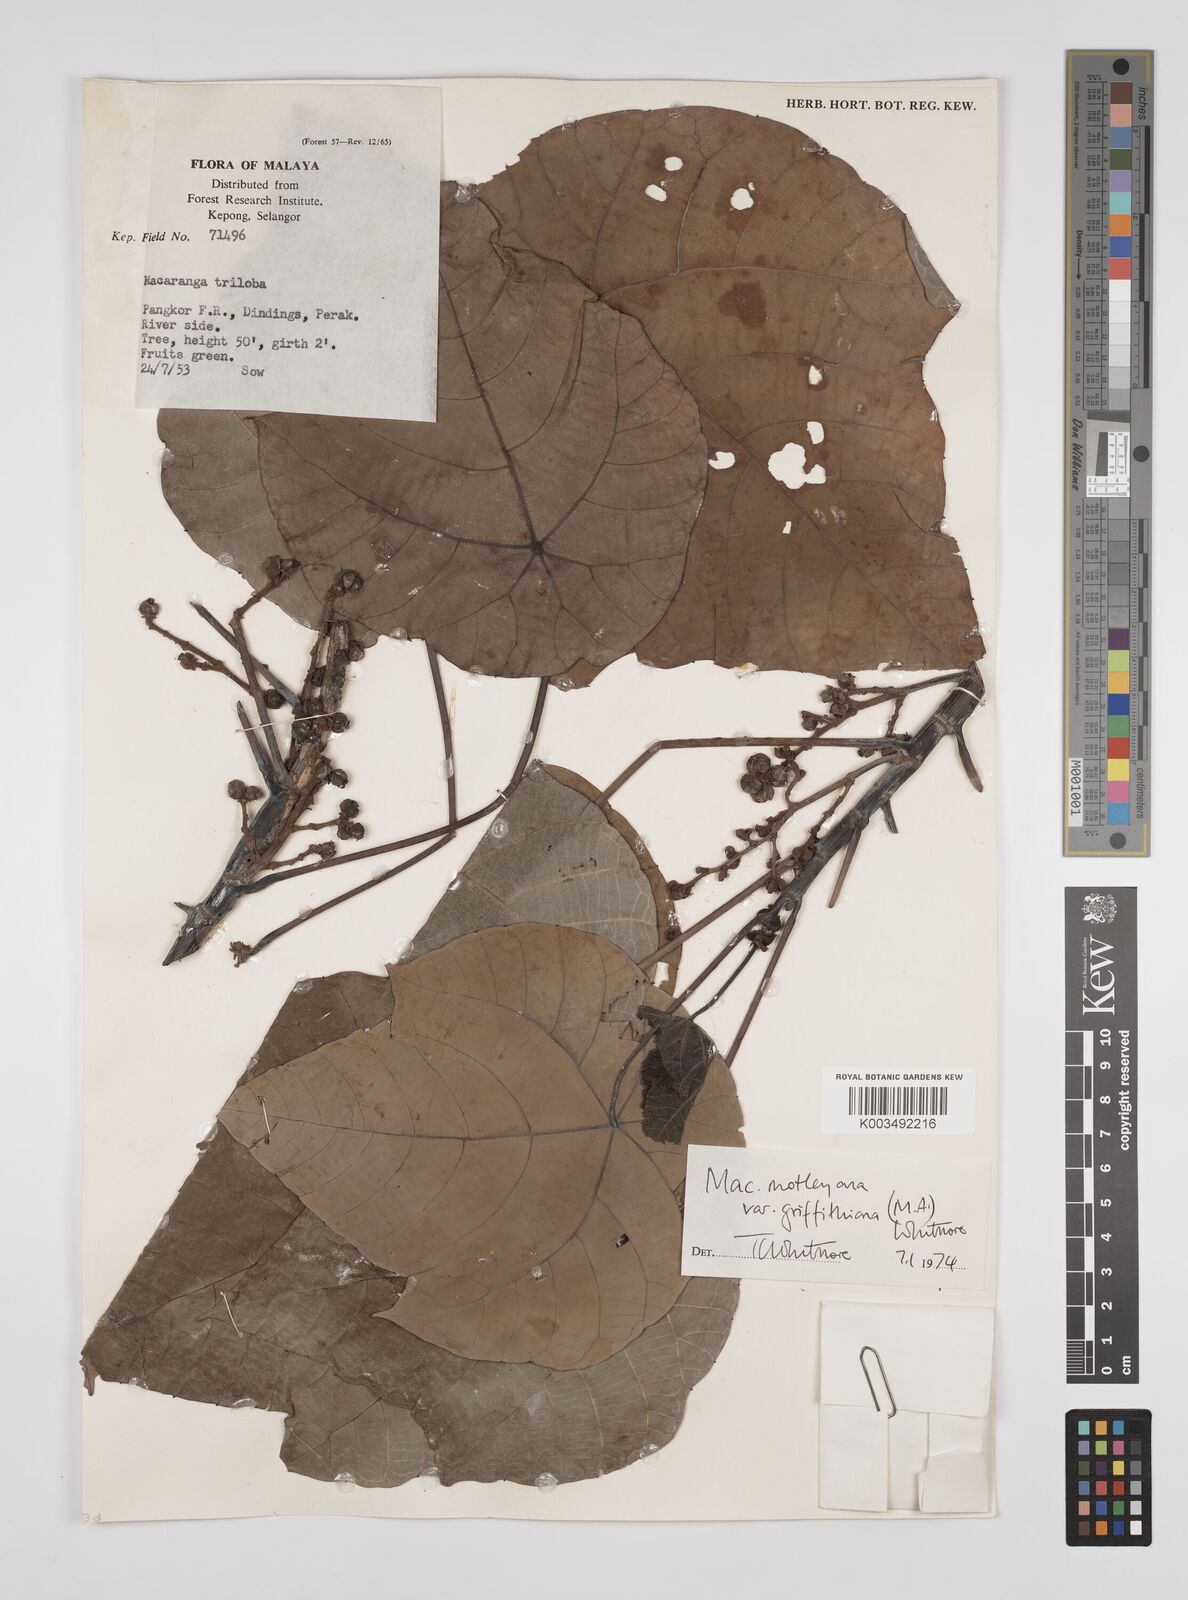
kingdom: Plantae
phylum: Tracheophyta
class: Magnoliopsida
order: Malpighiales
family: Euphorbiaceae
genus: Macaranga
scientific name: Macaranga griffithiana
